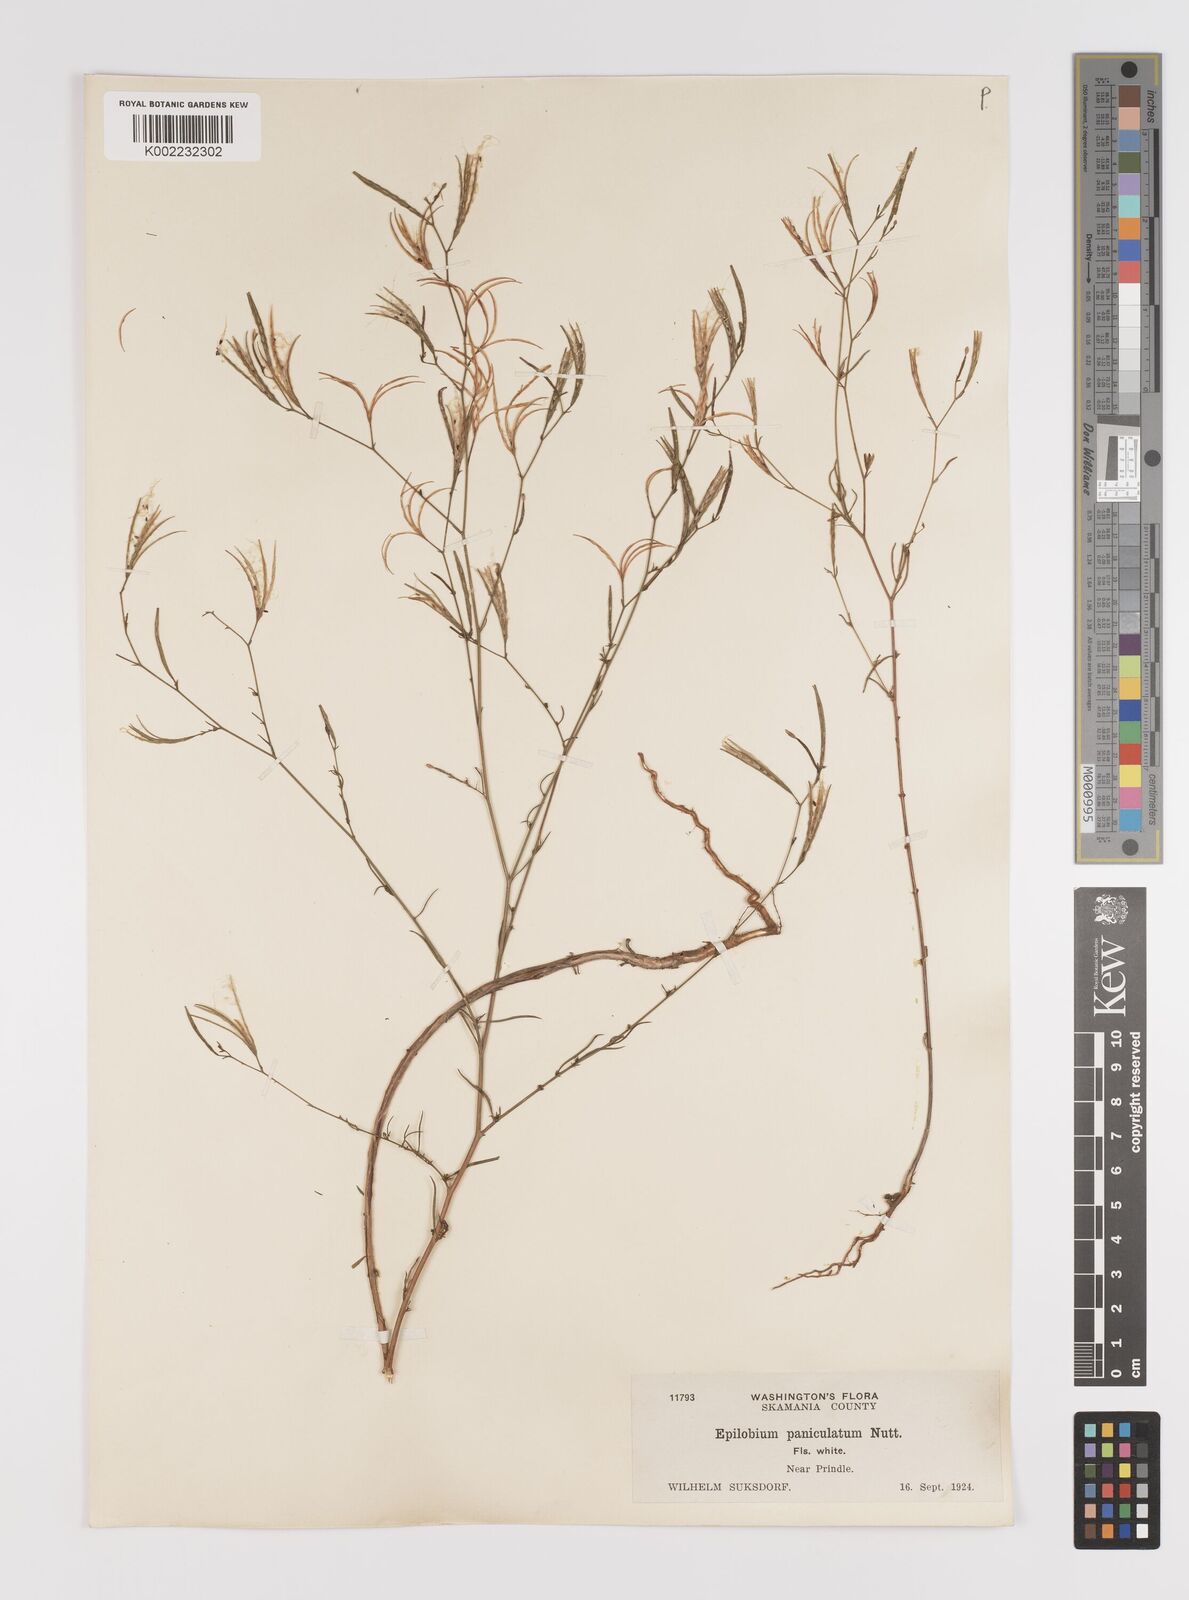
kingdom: Plantae
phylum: Tracheophyta
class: Magnoliopsida
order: Myrtales
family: Onagraceae
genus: Epilobium
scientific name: Epilobium
